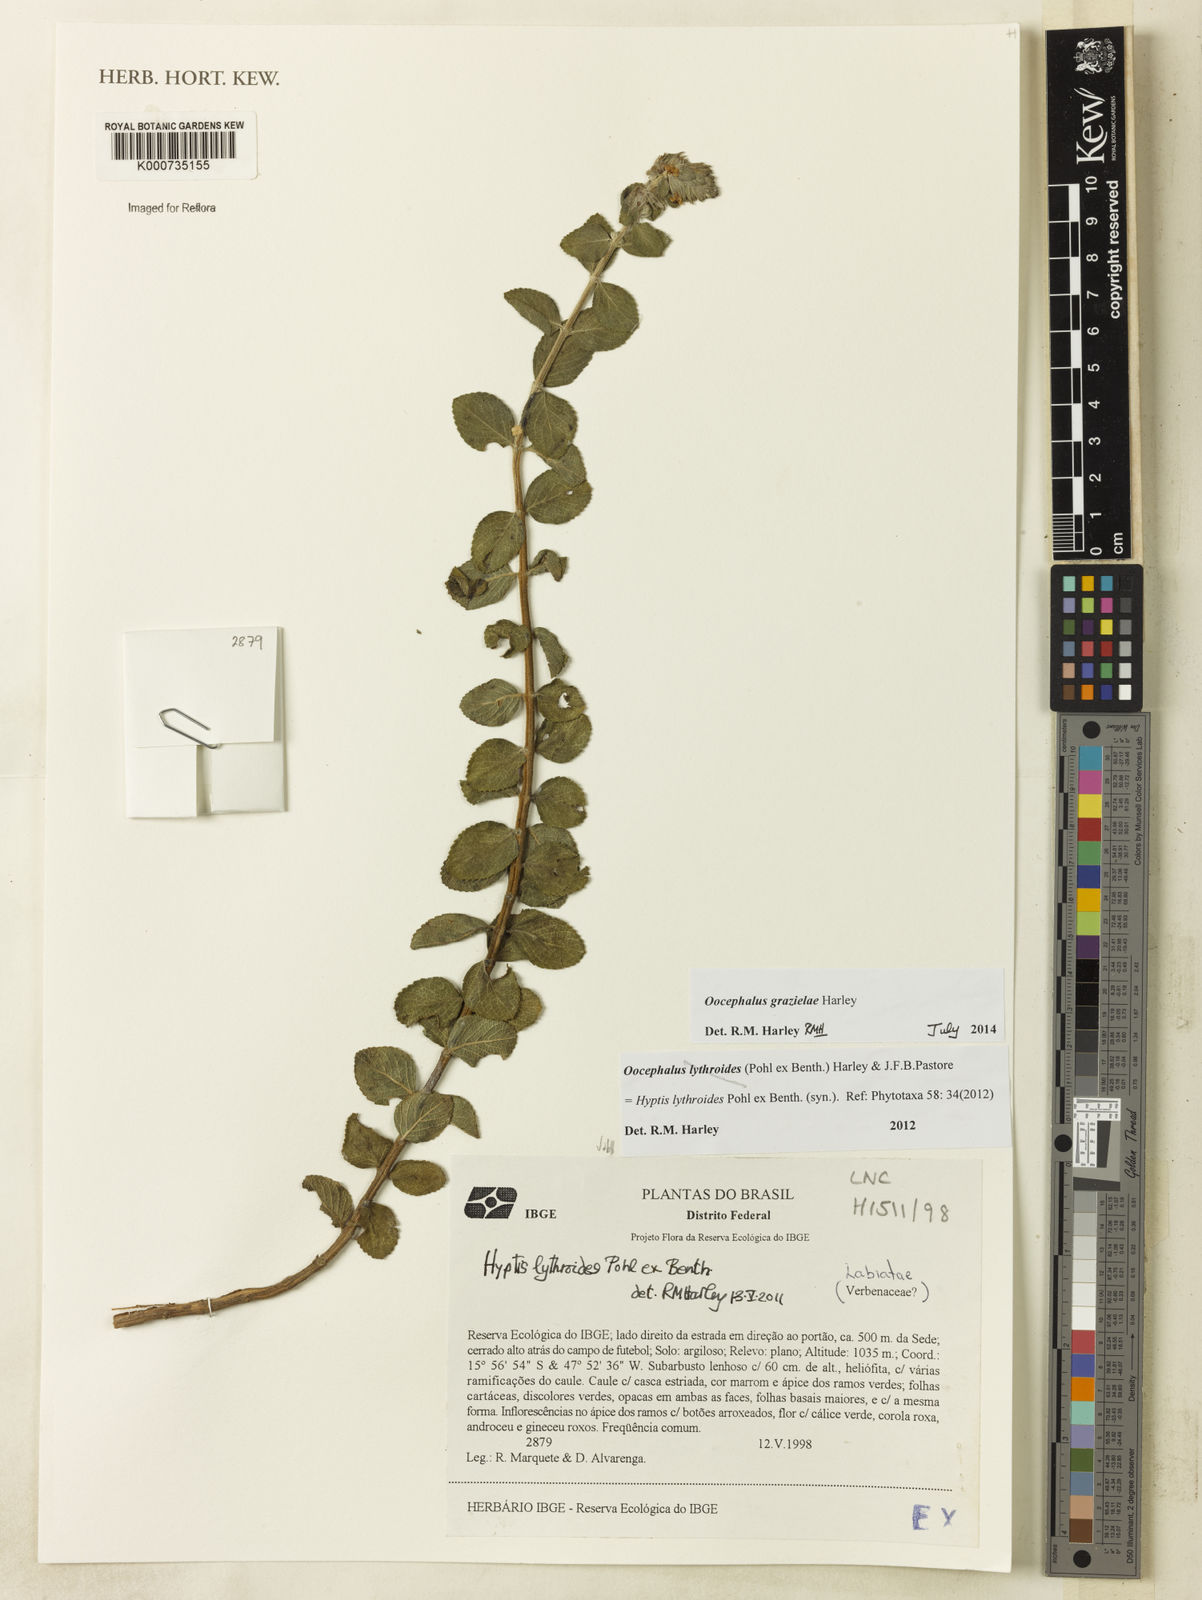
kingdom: Plantae
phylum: Tracheophyta
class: Magnoliopsida
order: Lamiales
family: Lamiaceae
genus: Oocephalus
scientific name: Oocephalus lythroides
